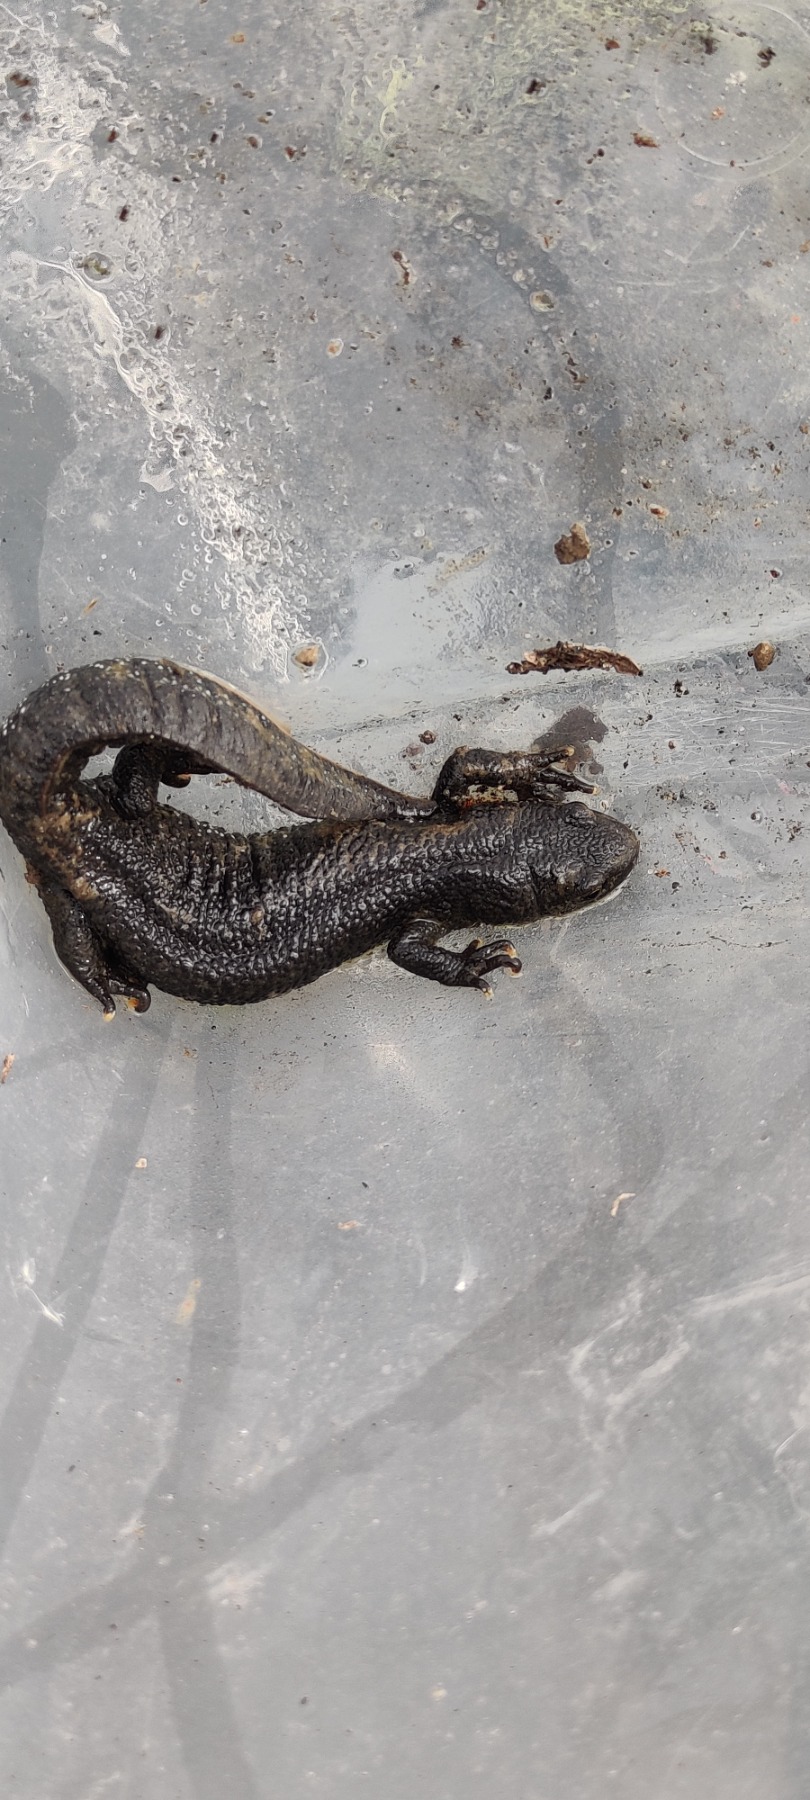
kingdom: Animalia
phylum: Chordata
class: Amphibia
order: Caudata
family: Salamandridae
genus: Triturus
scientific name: Triturus cristatus
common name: Stor vandsalamander
